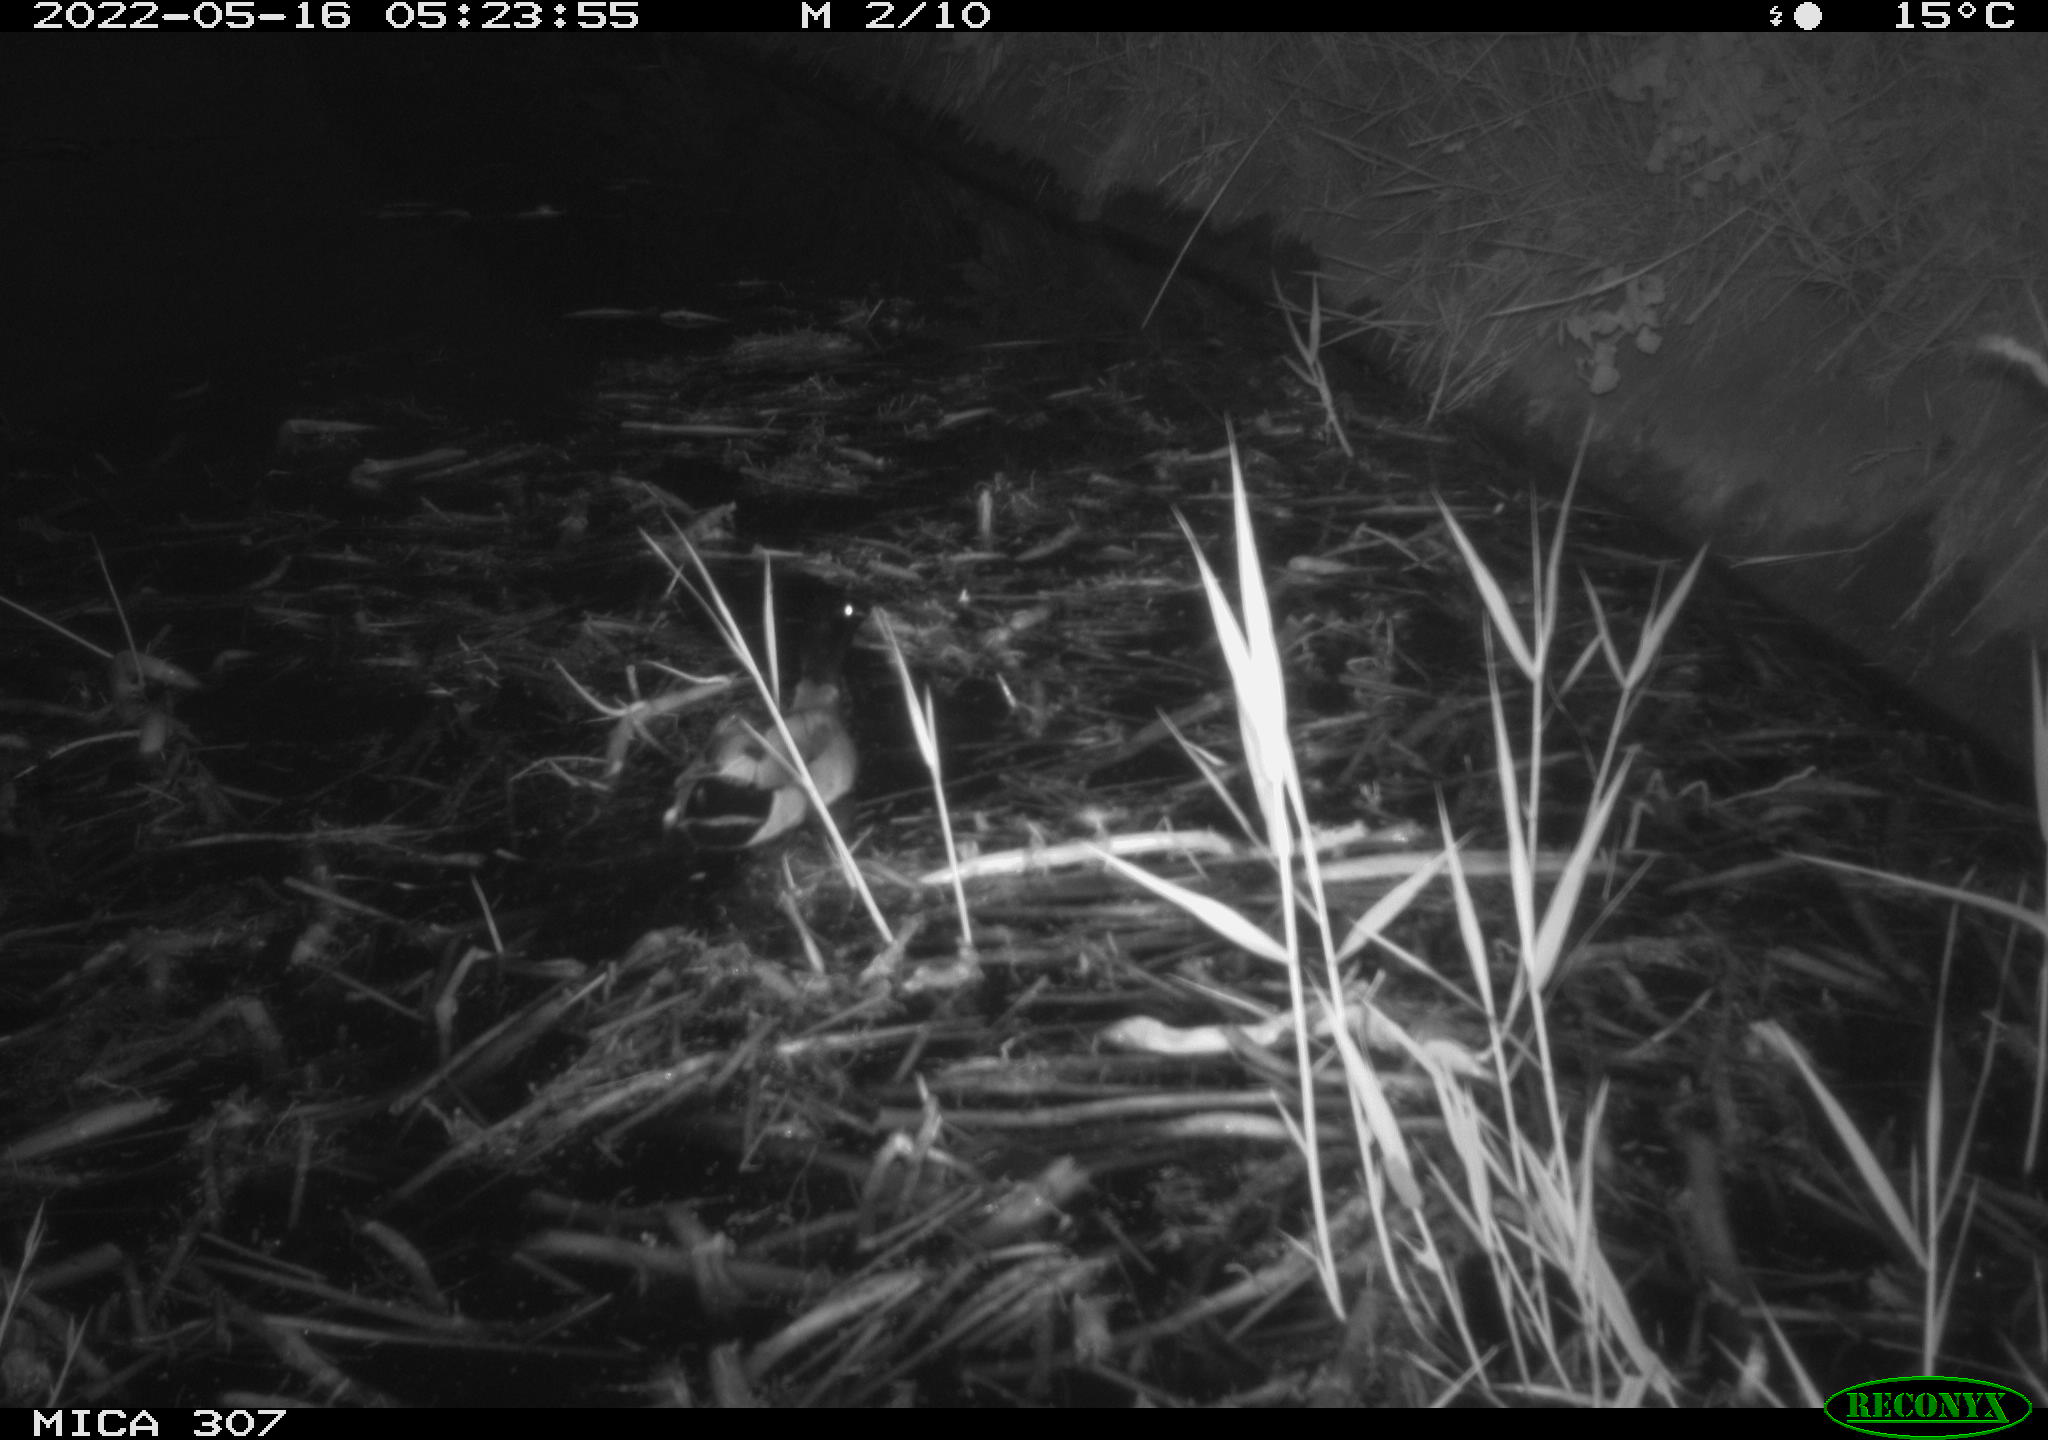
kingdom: Animalia
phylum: Chordata
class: Aves
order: Anseriformes
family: Anatidae
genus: Anas
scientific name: Anas platyrhynchos
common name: Mallard
